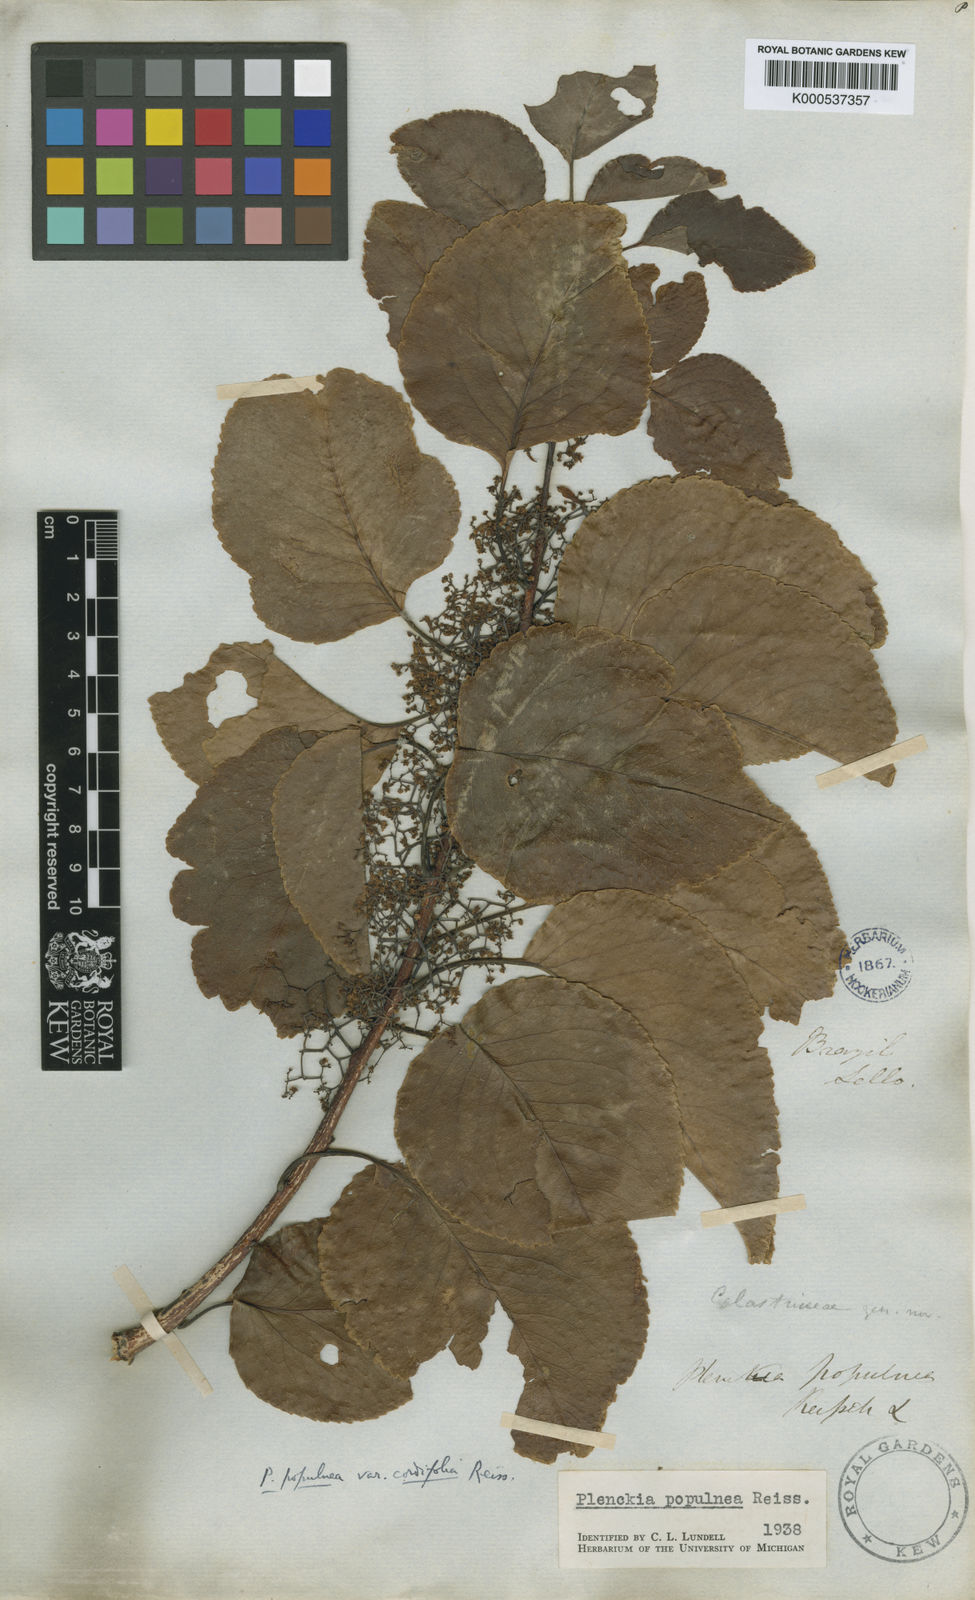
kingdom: Plantae
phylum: Tracheophyta
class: Magnoliopsida
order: Celastrales
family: Celastraceae
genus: Plenckia
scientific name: Plenckia populnea
